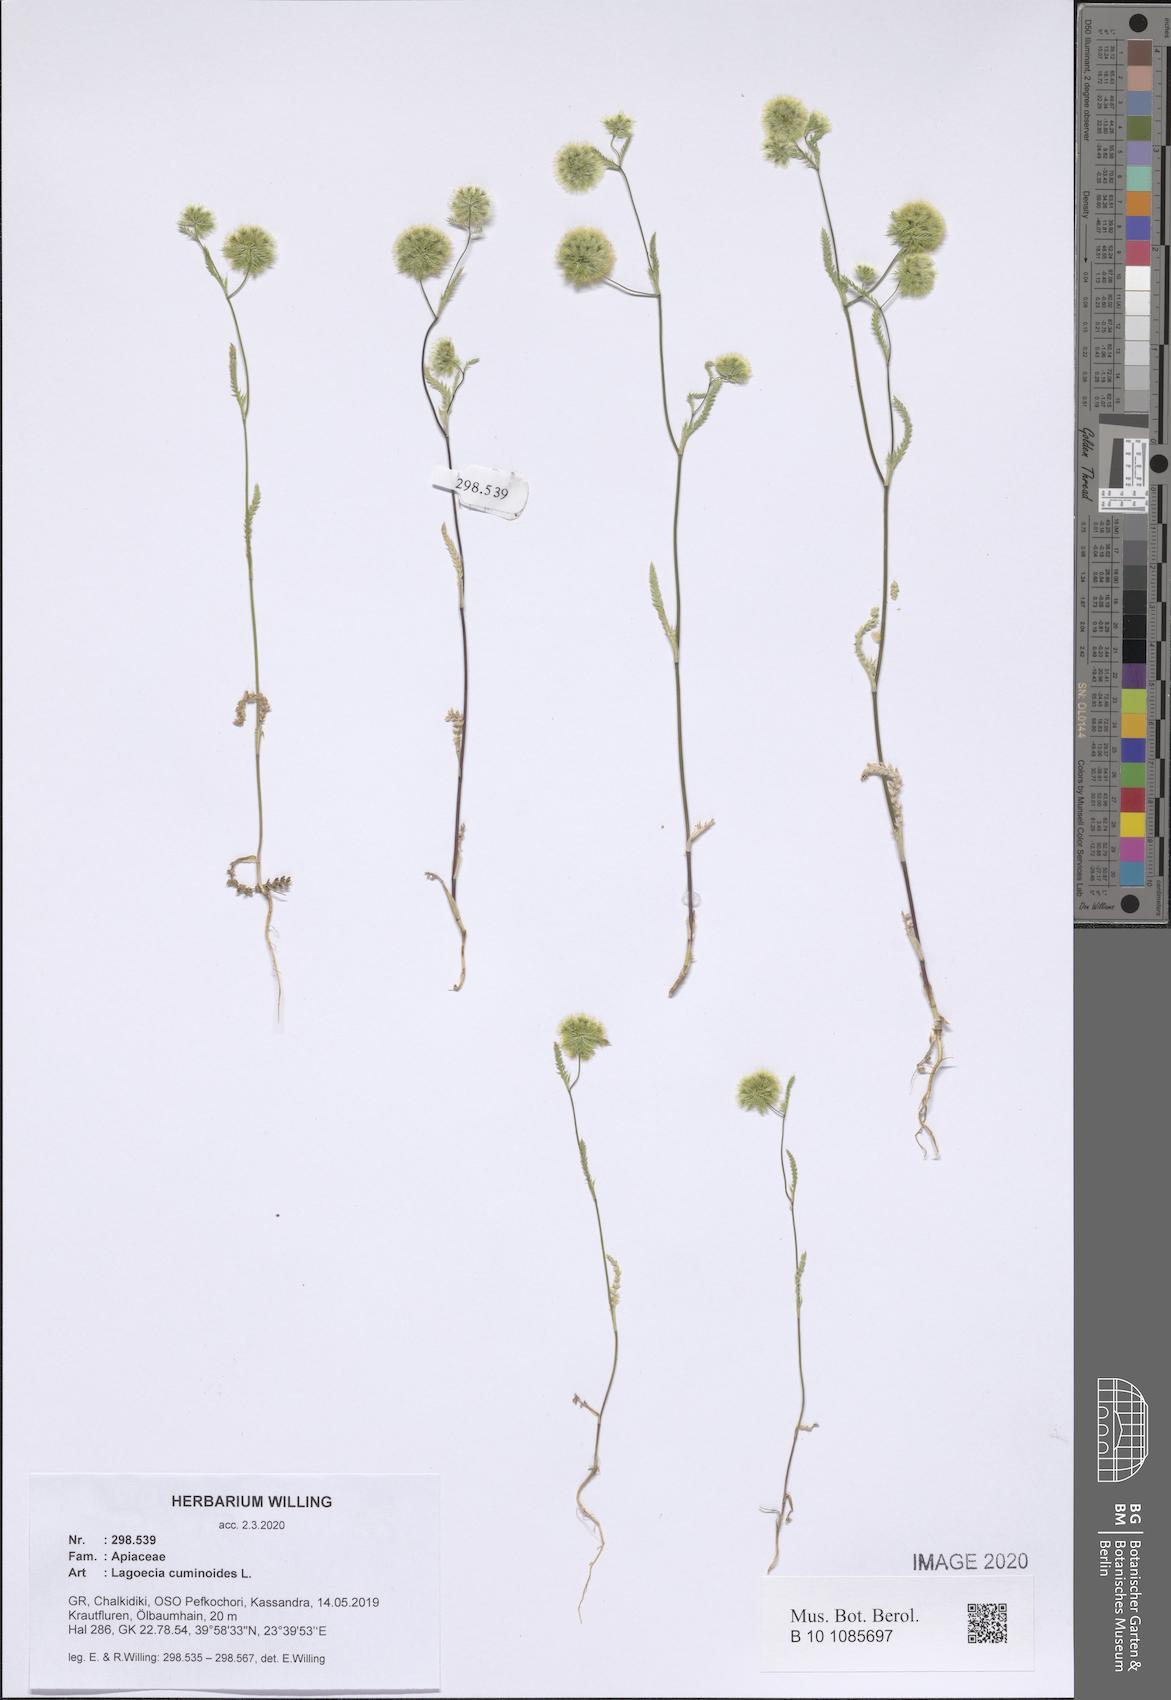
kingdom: Plantae
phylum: Tracheophyta
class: Magnoliopsida
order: Apiales
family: Apiaceae
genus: Lagoecia
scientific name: Lagoecia cuminoides
